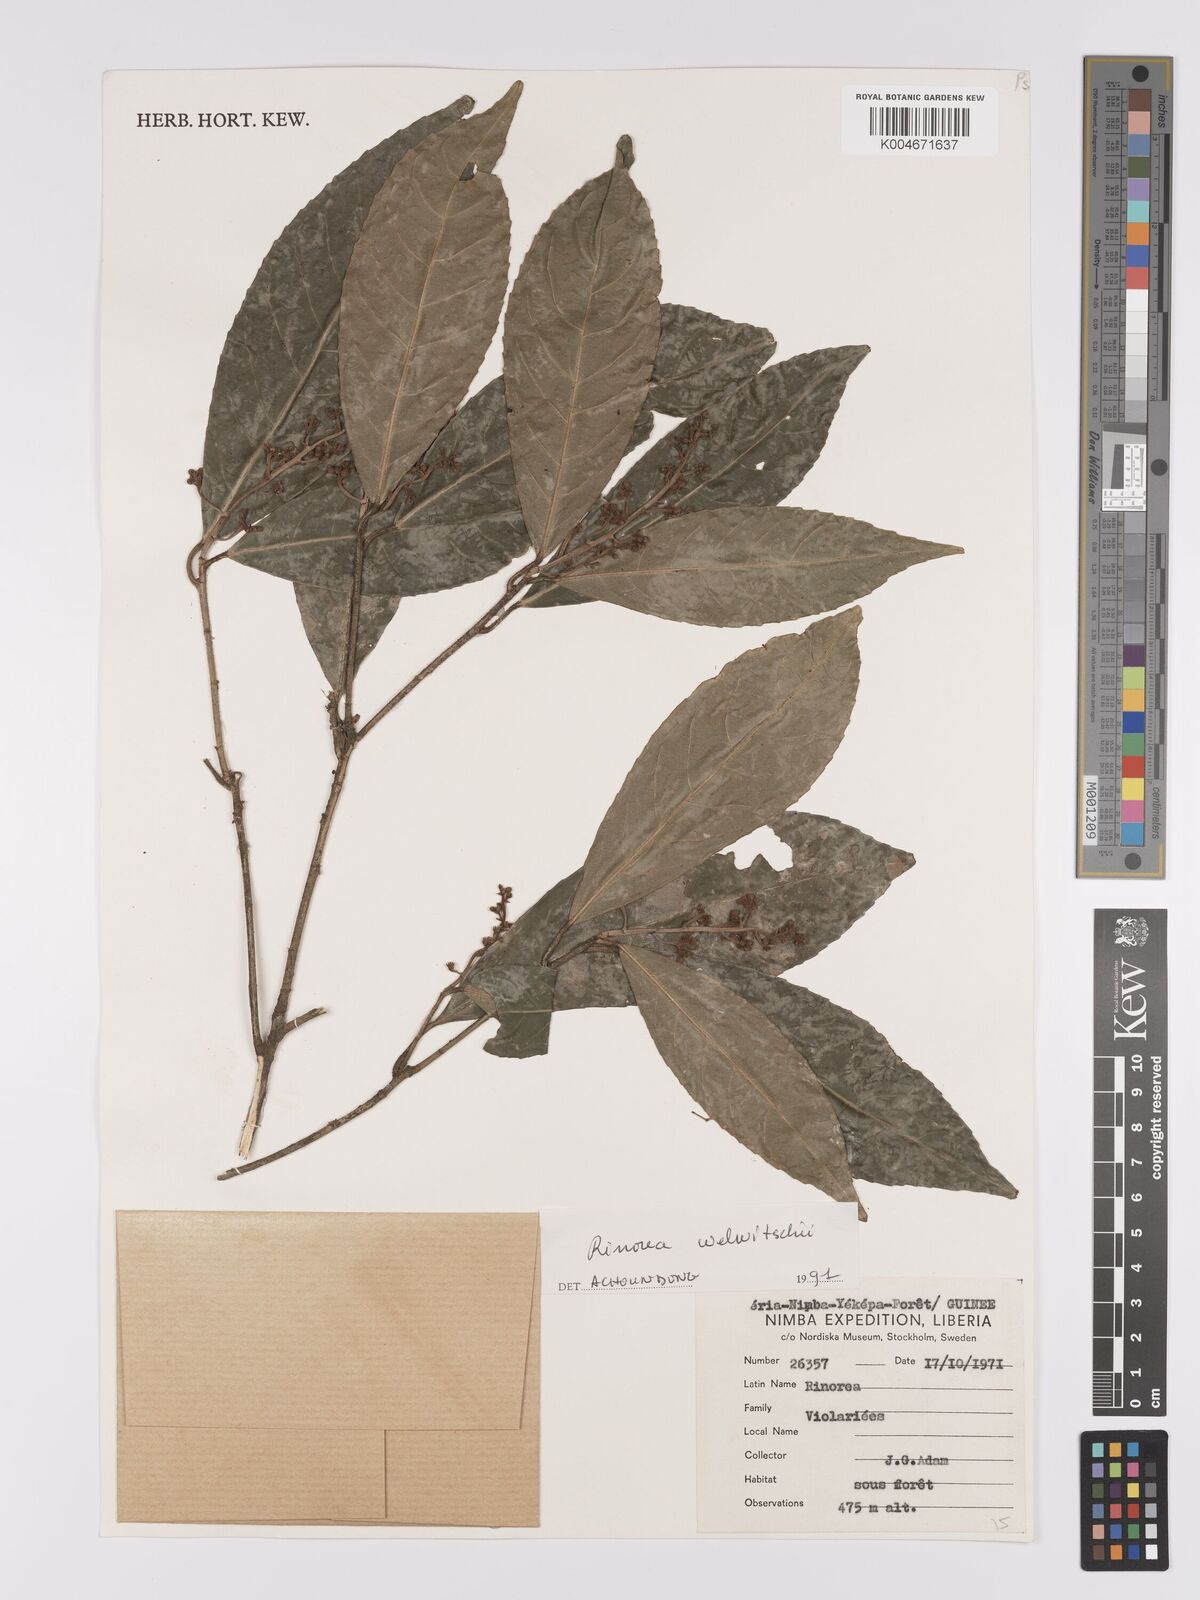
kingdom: Plantae
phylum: Tracheophyta
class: Magnoliopsida
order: Malpighiales
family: Violaceae
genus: Rinorea
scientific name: Rinorea welwitschii
